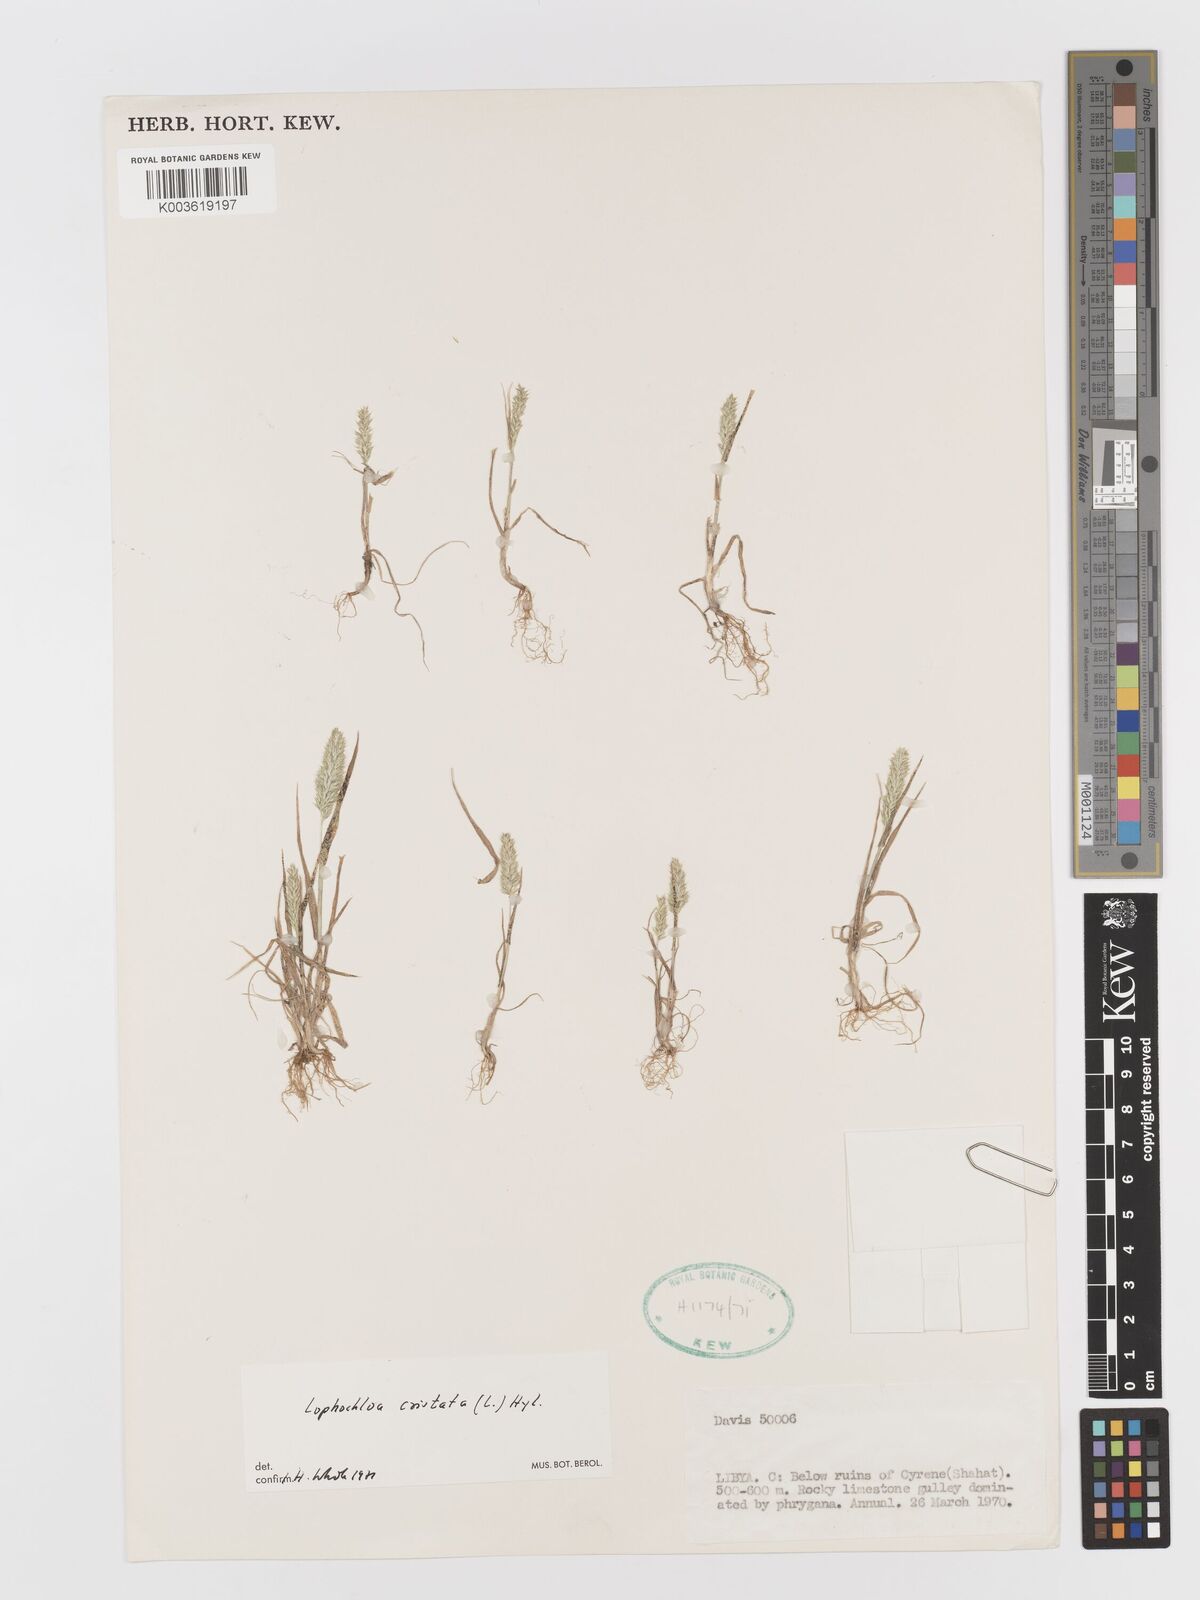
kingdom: Plantae
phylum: Tracheophyta
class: Liliopsida
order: Poales
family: Poaceae
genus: Rostraria
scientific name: Rostraria cristata
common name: Mediterranean hair-grass
